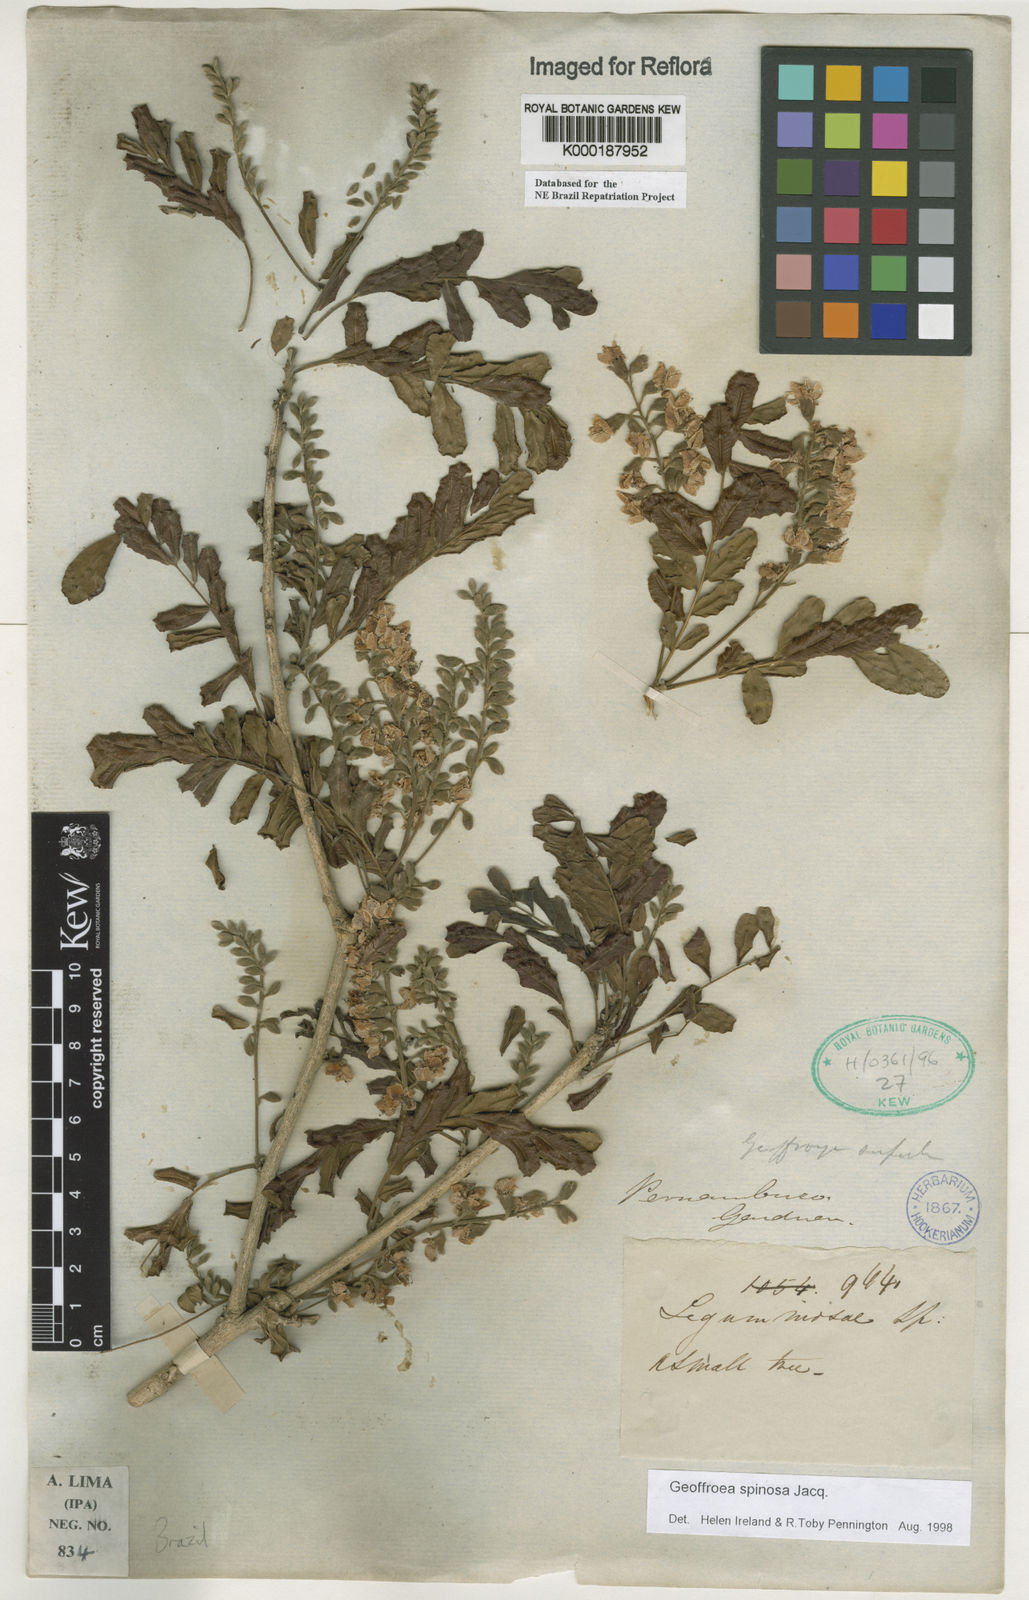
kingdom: Plantae
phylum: Tracheophyta
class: Magnoliopsida
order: Fabales
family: Fabaceae
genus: Geoffroea
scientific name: Geoffroea spinosa
